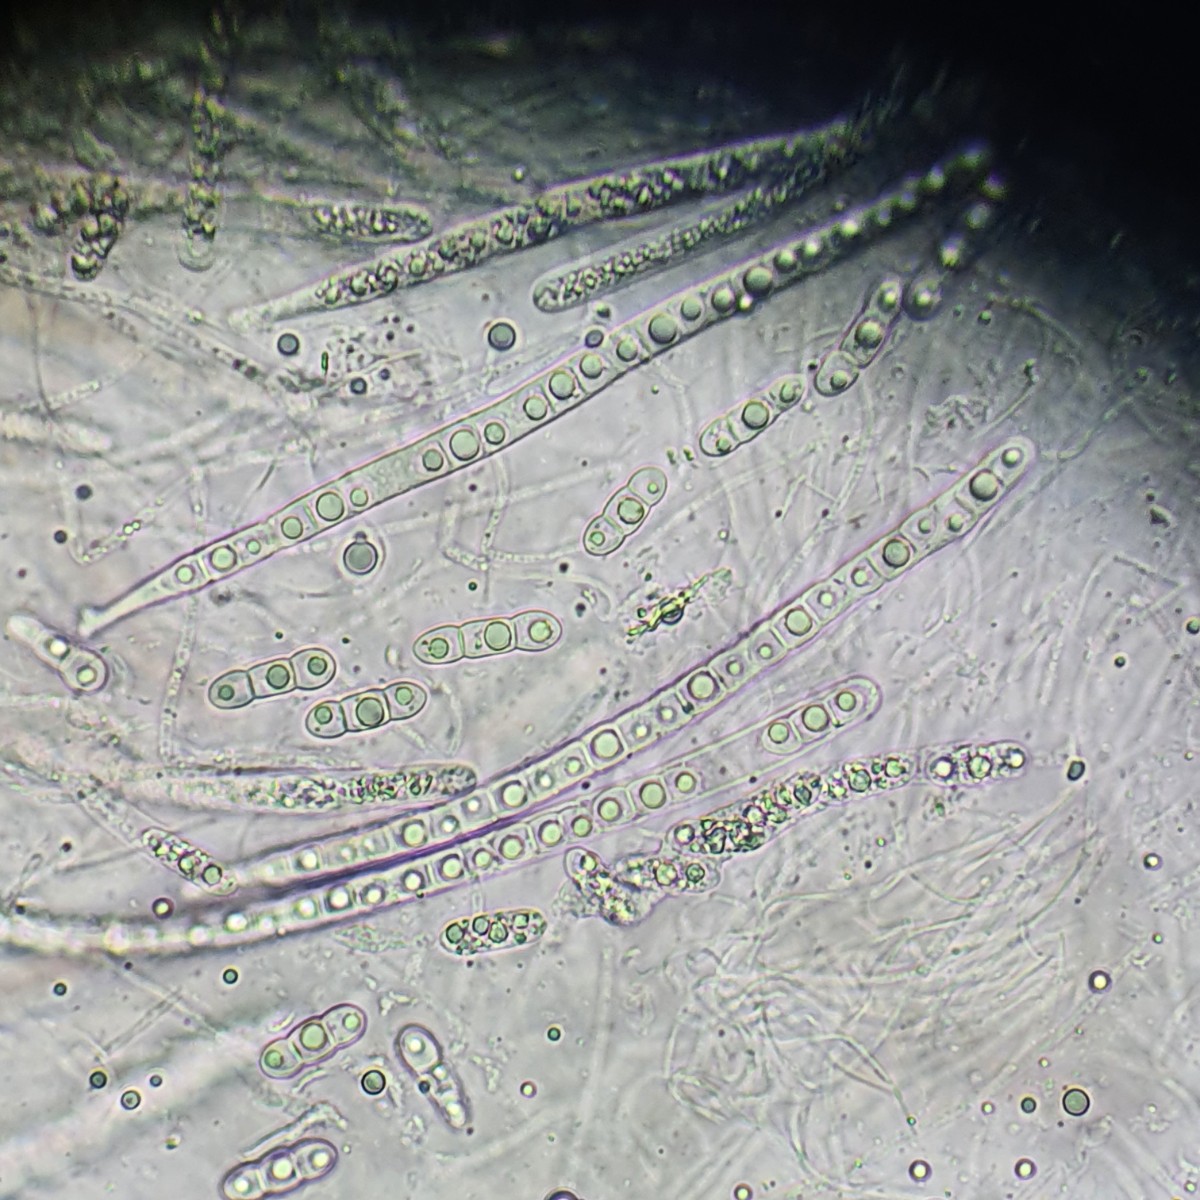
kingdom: Fungi
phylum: Ascomycota
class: Sordariomycetes
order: Xylariales
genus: Melomastia
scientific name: Melomastia mastoidea
